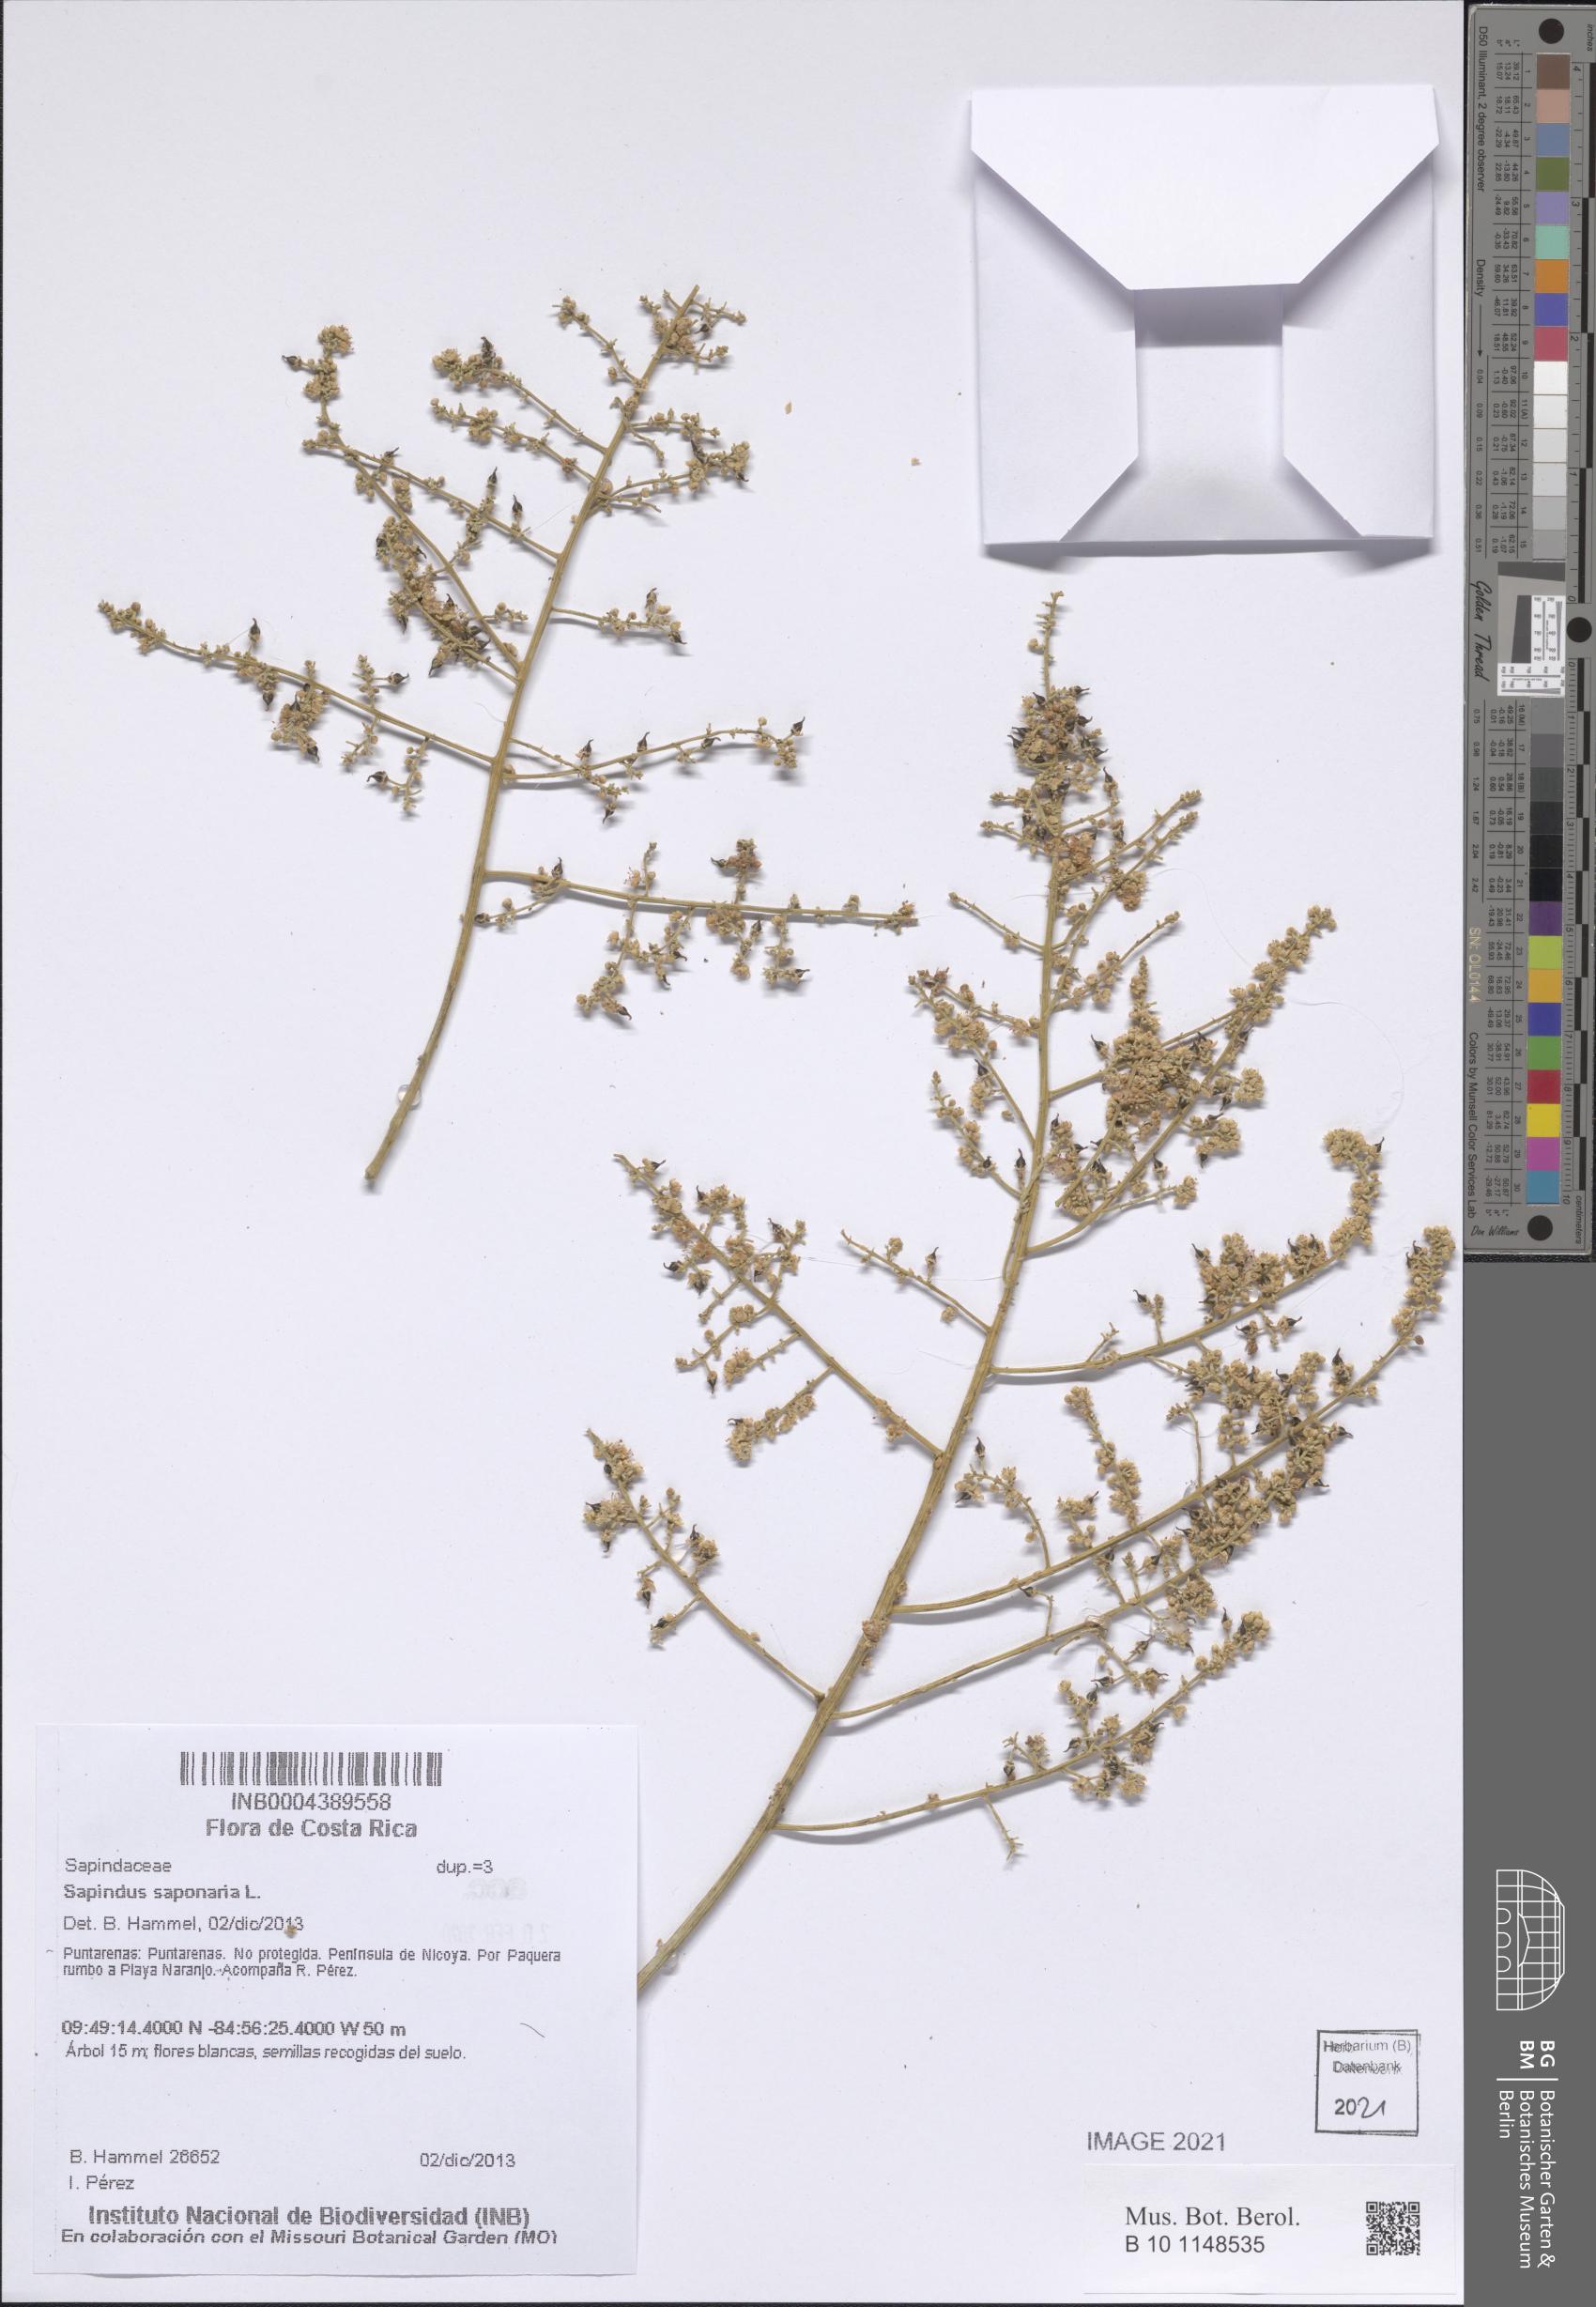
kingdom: Plantae
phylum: Tracheophyta
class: Magnoliopsida
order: Sapindales
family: Sapindaceae
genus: Sapindus
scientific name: Sapindus saponaria
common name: Wingleaf soapberry
